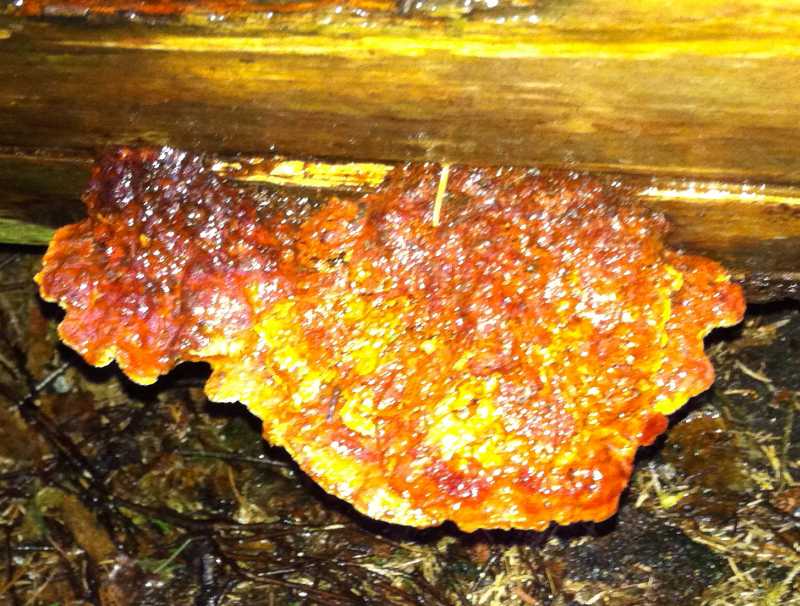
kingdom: Fungi
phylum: Basidiomycota
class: Agaricomycetes
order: Polyporales
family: Pycnoporellaceae
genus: Pycnoporellus
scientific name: Pycnoporellus fulgens
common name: flammeporesvamp
